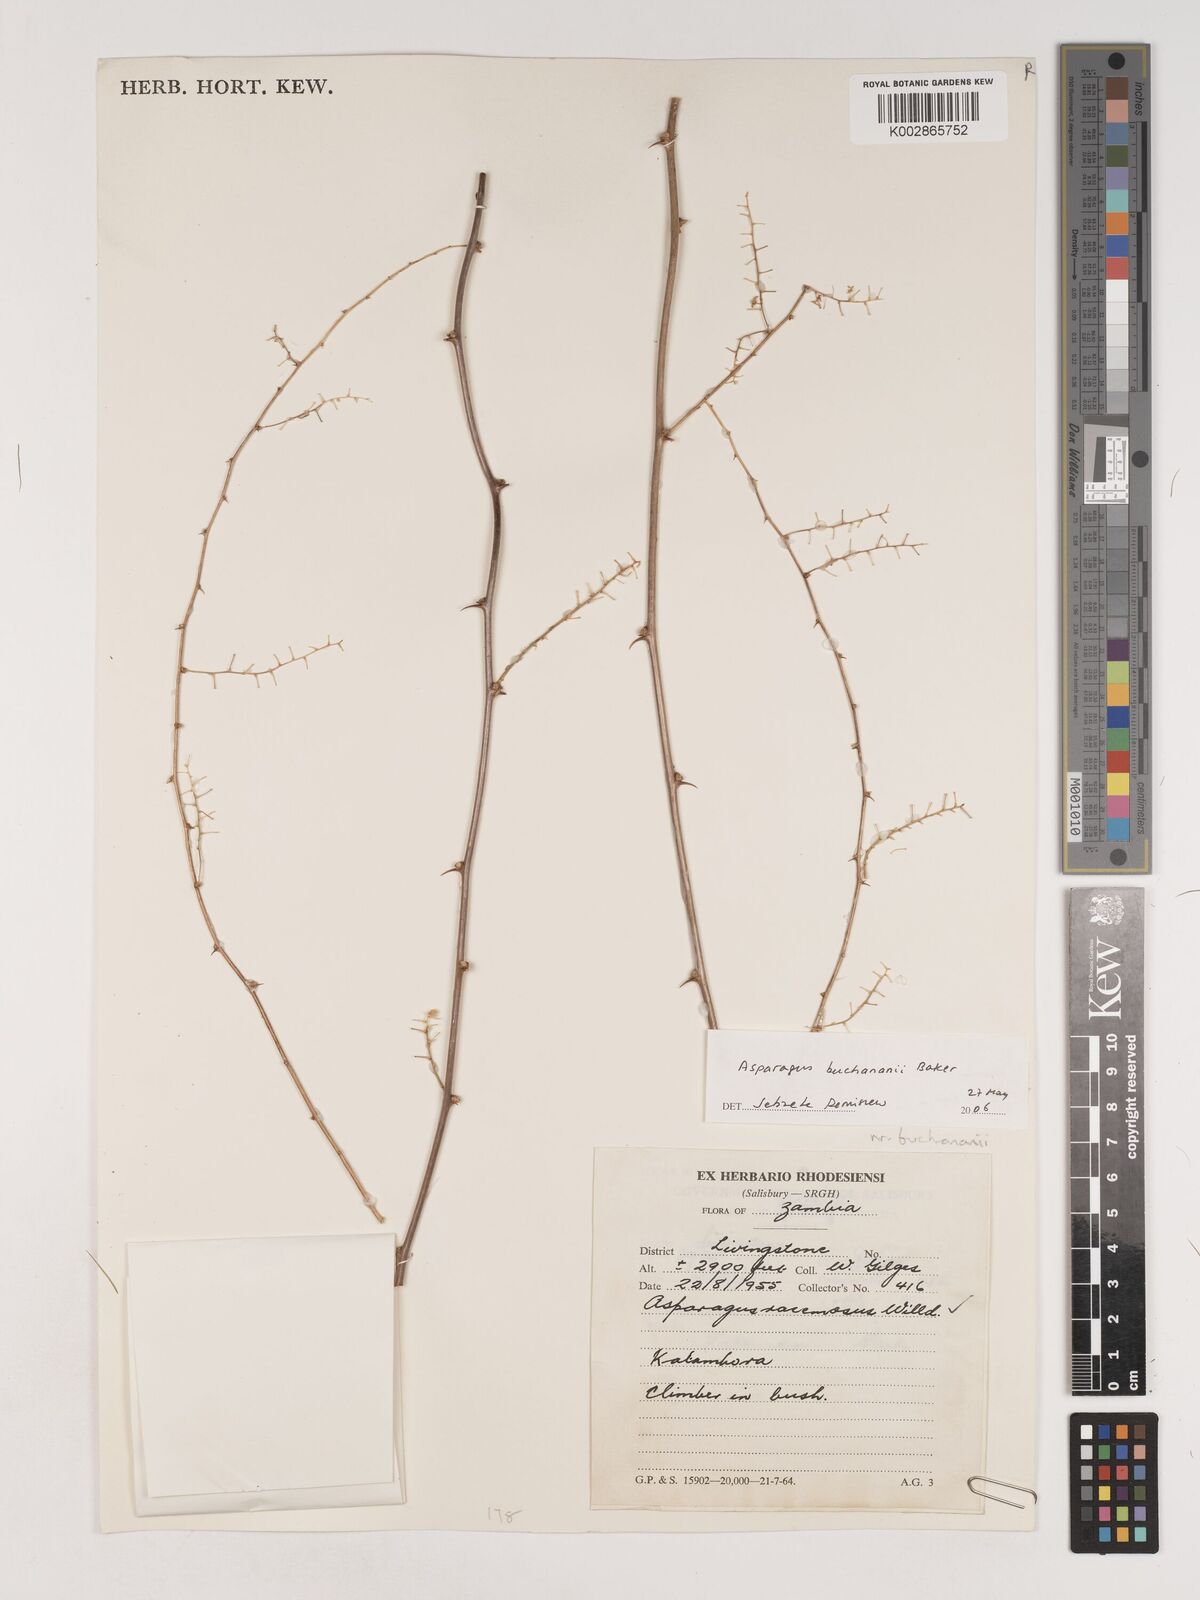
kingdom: Plantae
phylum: Tracheophyta
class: Liliopsida
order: Asparagales
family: Asparagaceae
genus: Asparagus
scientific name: Asparagus racemosus
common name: Asparagus-fern
